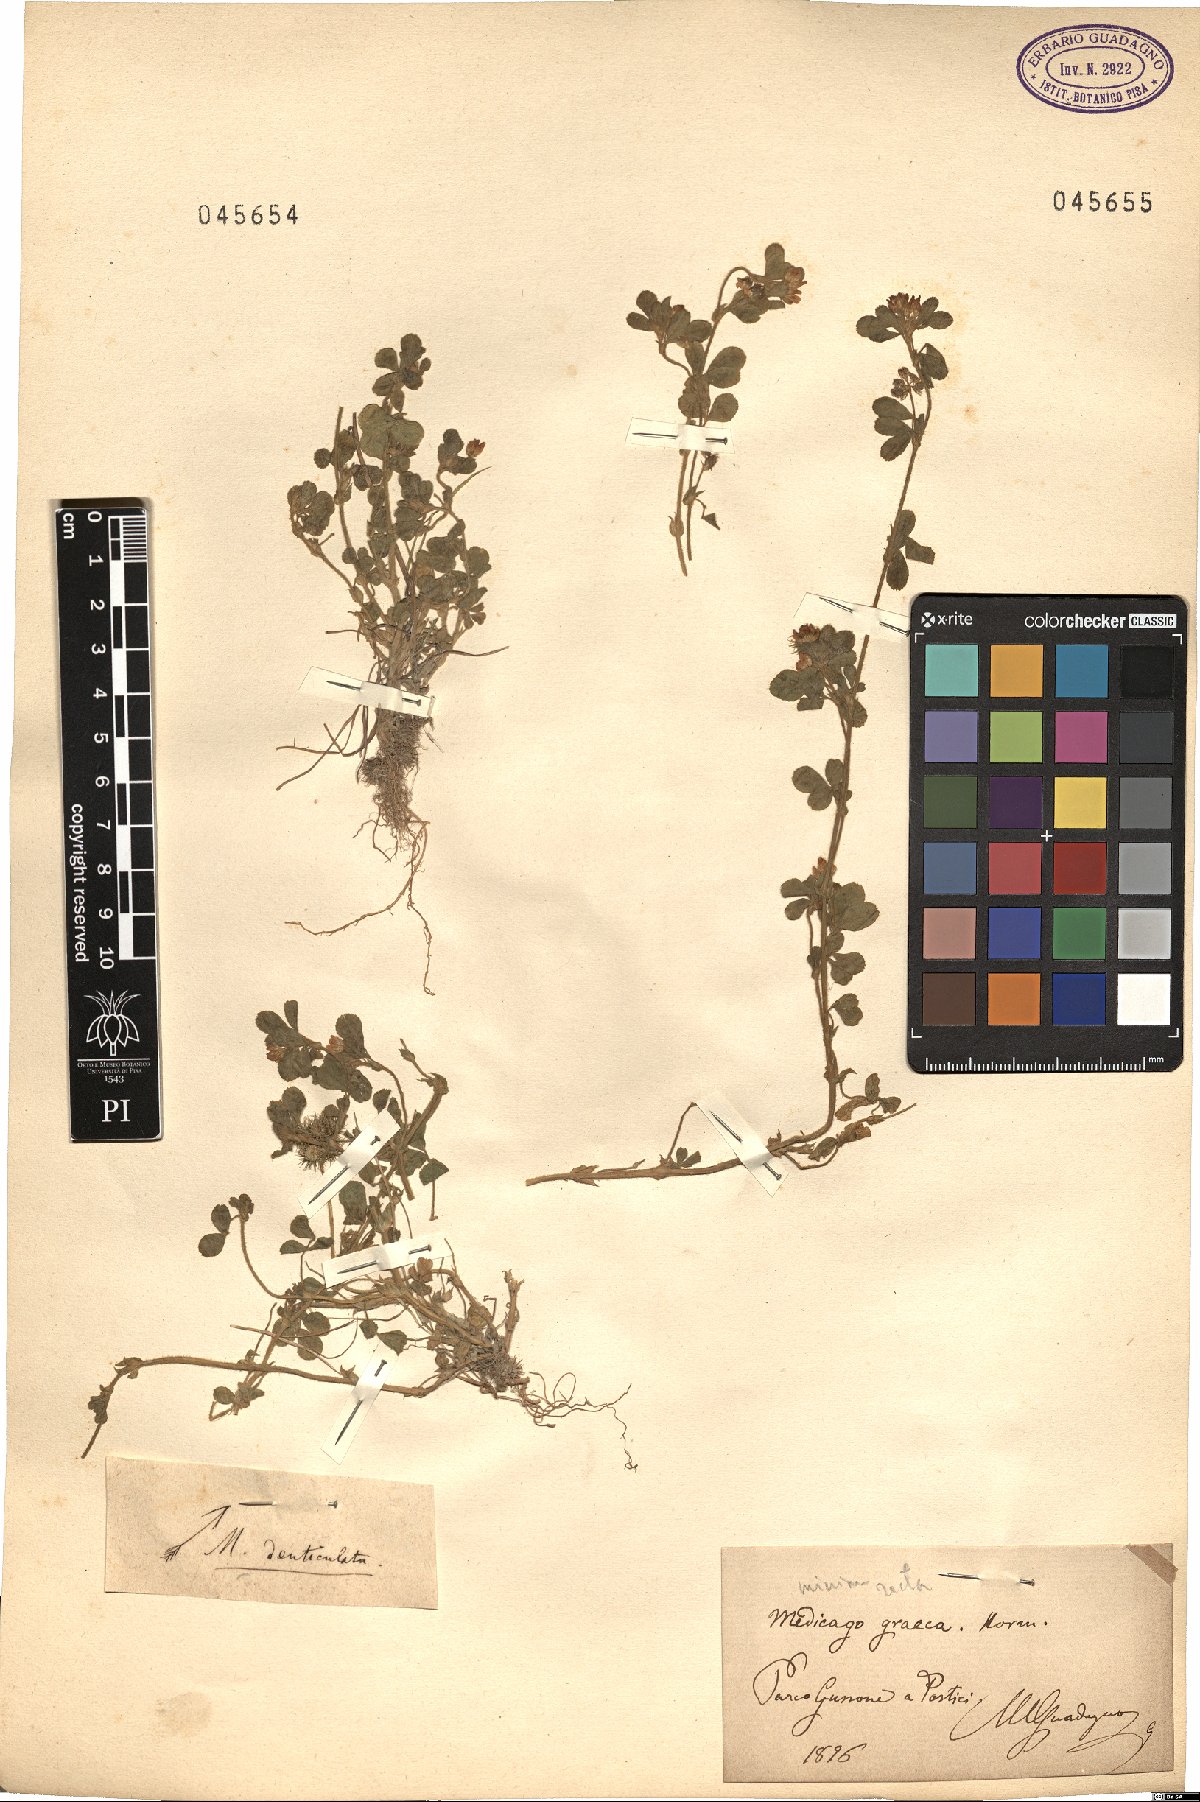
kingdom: Plantae
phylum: Tracheophyta
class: Magnoliopsida
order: Fabales
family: Fabaceae
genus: Medicago
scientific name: Medicago polymorpha
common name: Burclover
